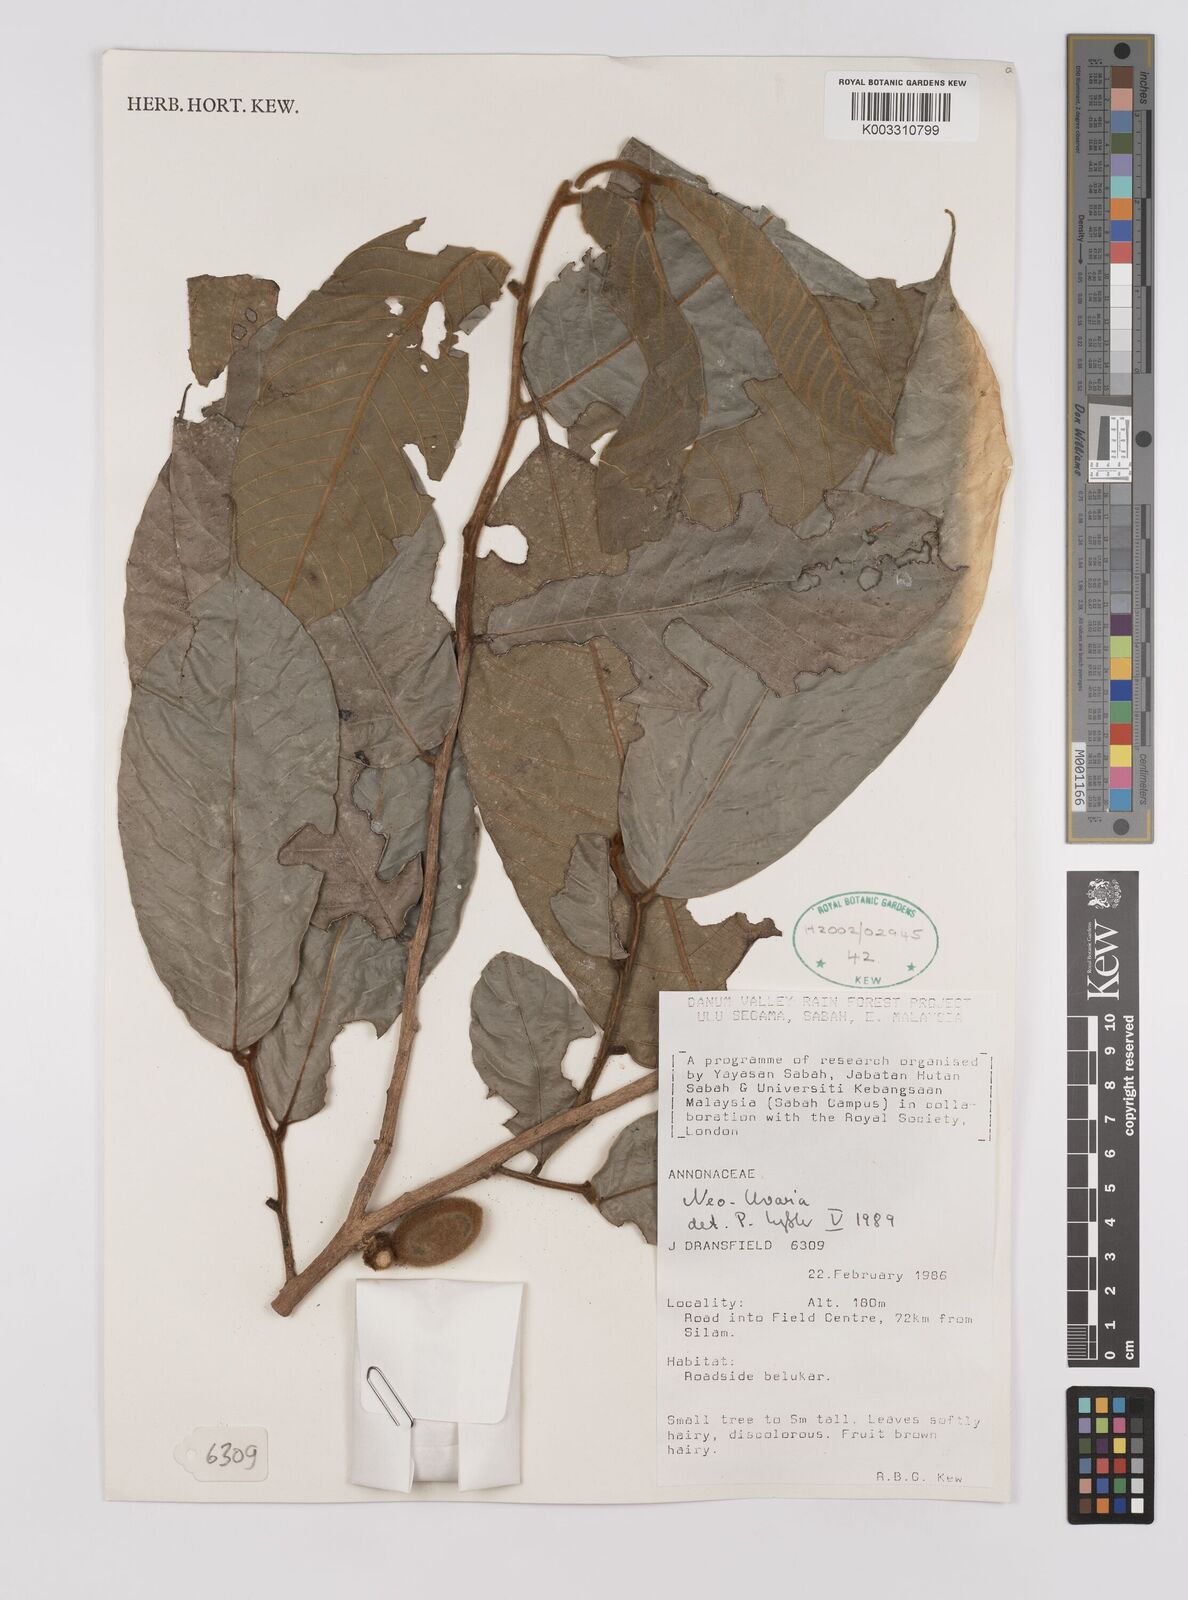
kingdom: Plantae
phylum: Tracheophyta
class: Magnoliopsida
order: Magnoliales
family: Annonaceae
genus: Neo-uvaria
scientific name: Neo-uvaria
